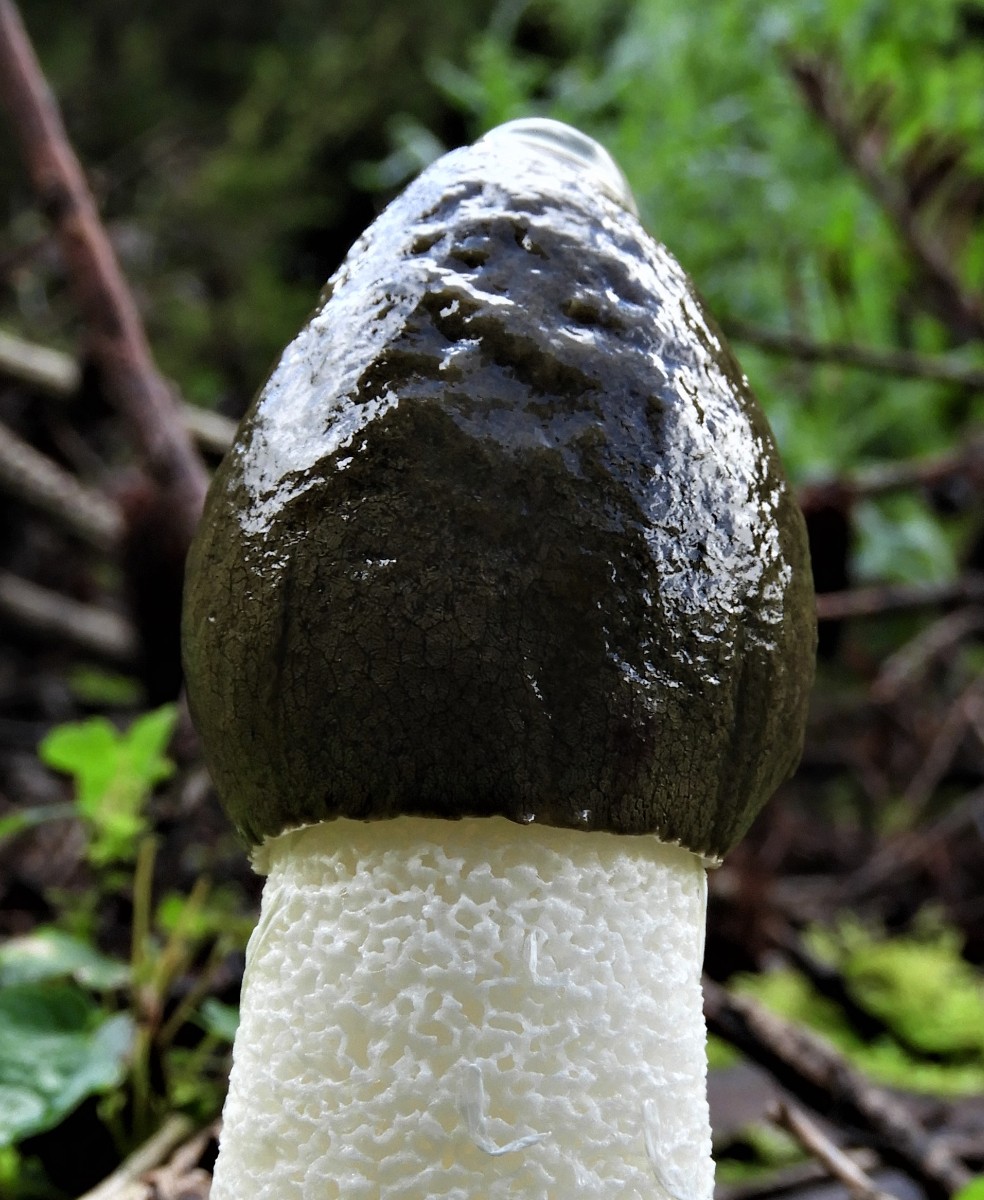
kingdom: Fungi
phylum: Basidiomycota
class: Agaricomycetes
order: Phallales
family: Phallaceae
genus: Phallus
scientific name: Phallus impudicus
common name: almindelig stinksvamp
